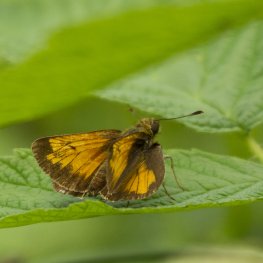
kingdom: Animalia
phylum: Arthropoda
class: Insecta
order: Lepidoptera
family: Hesperiidae
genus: Lon
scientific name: Lon hobomok
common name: Hobomok Skipper
